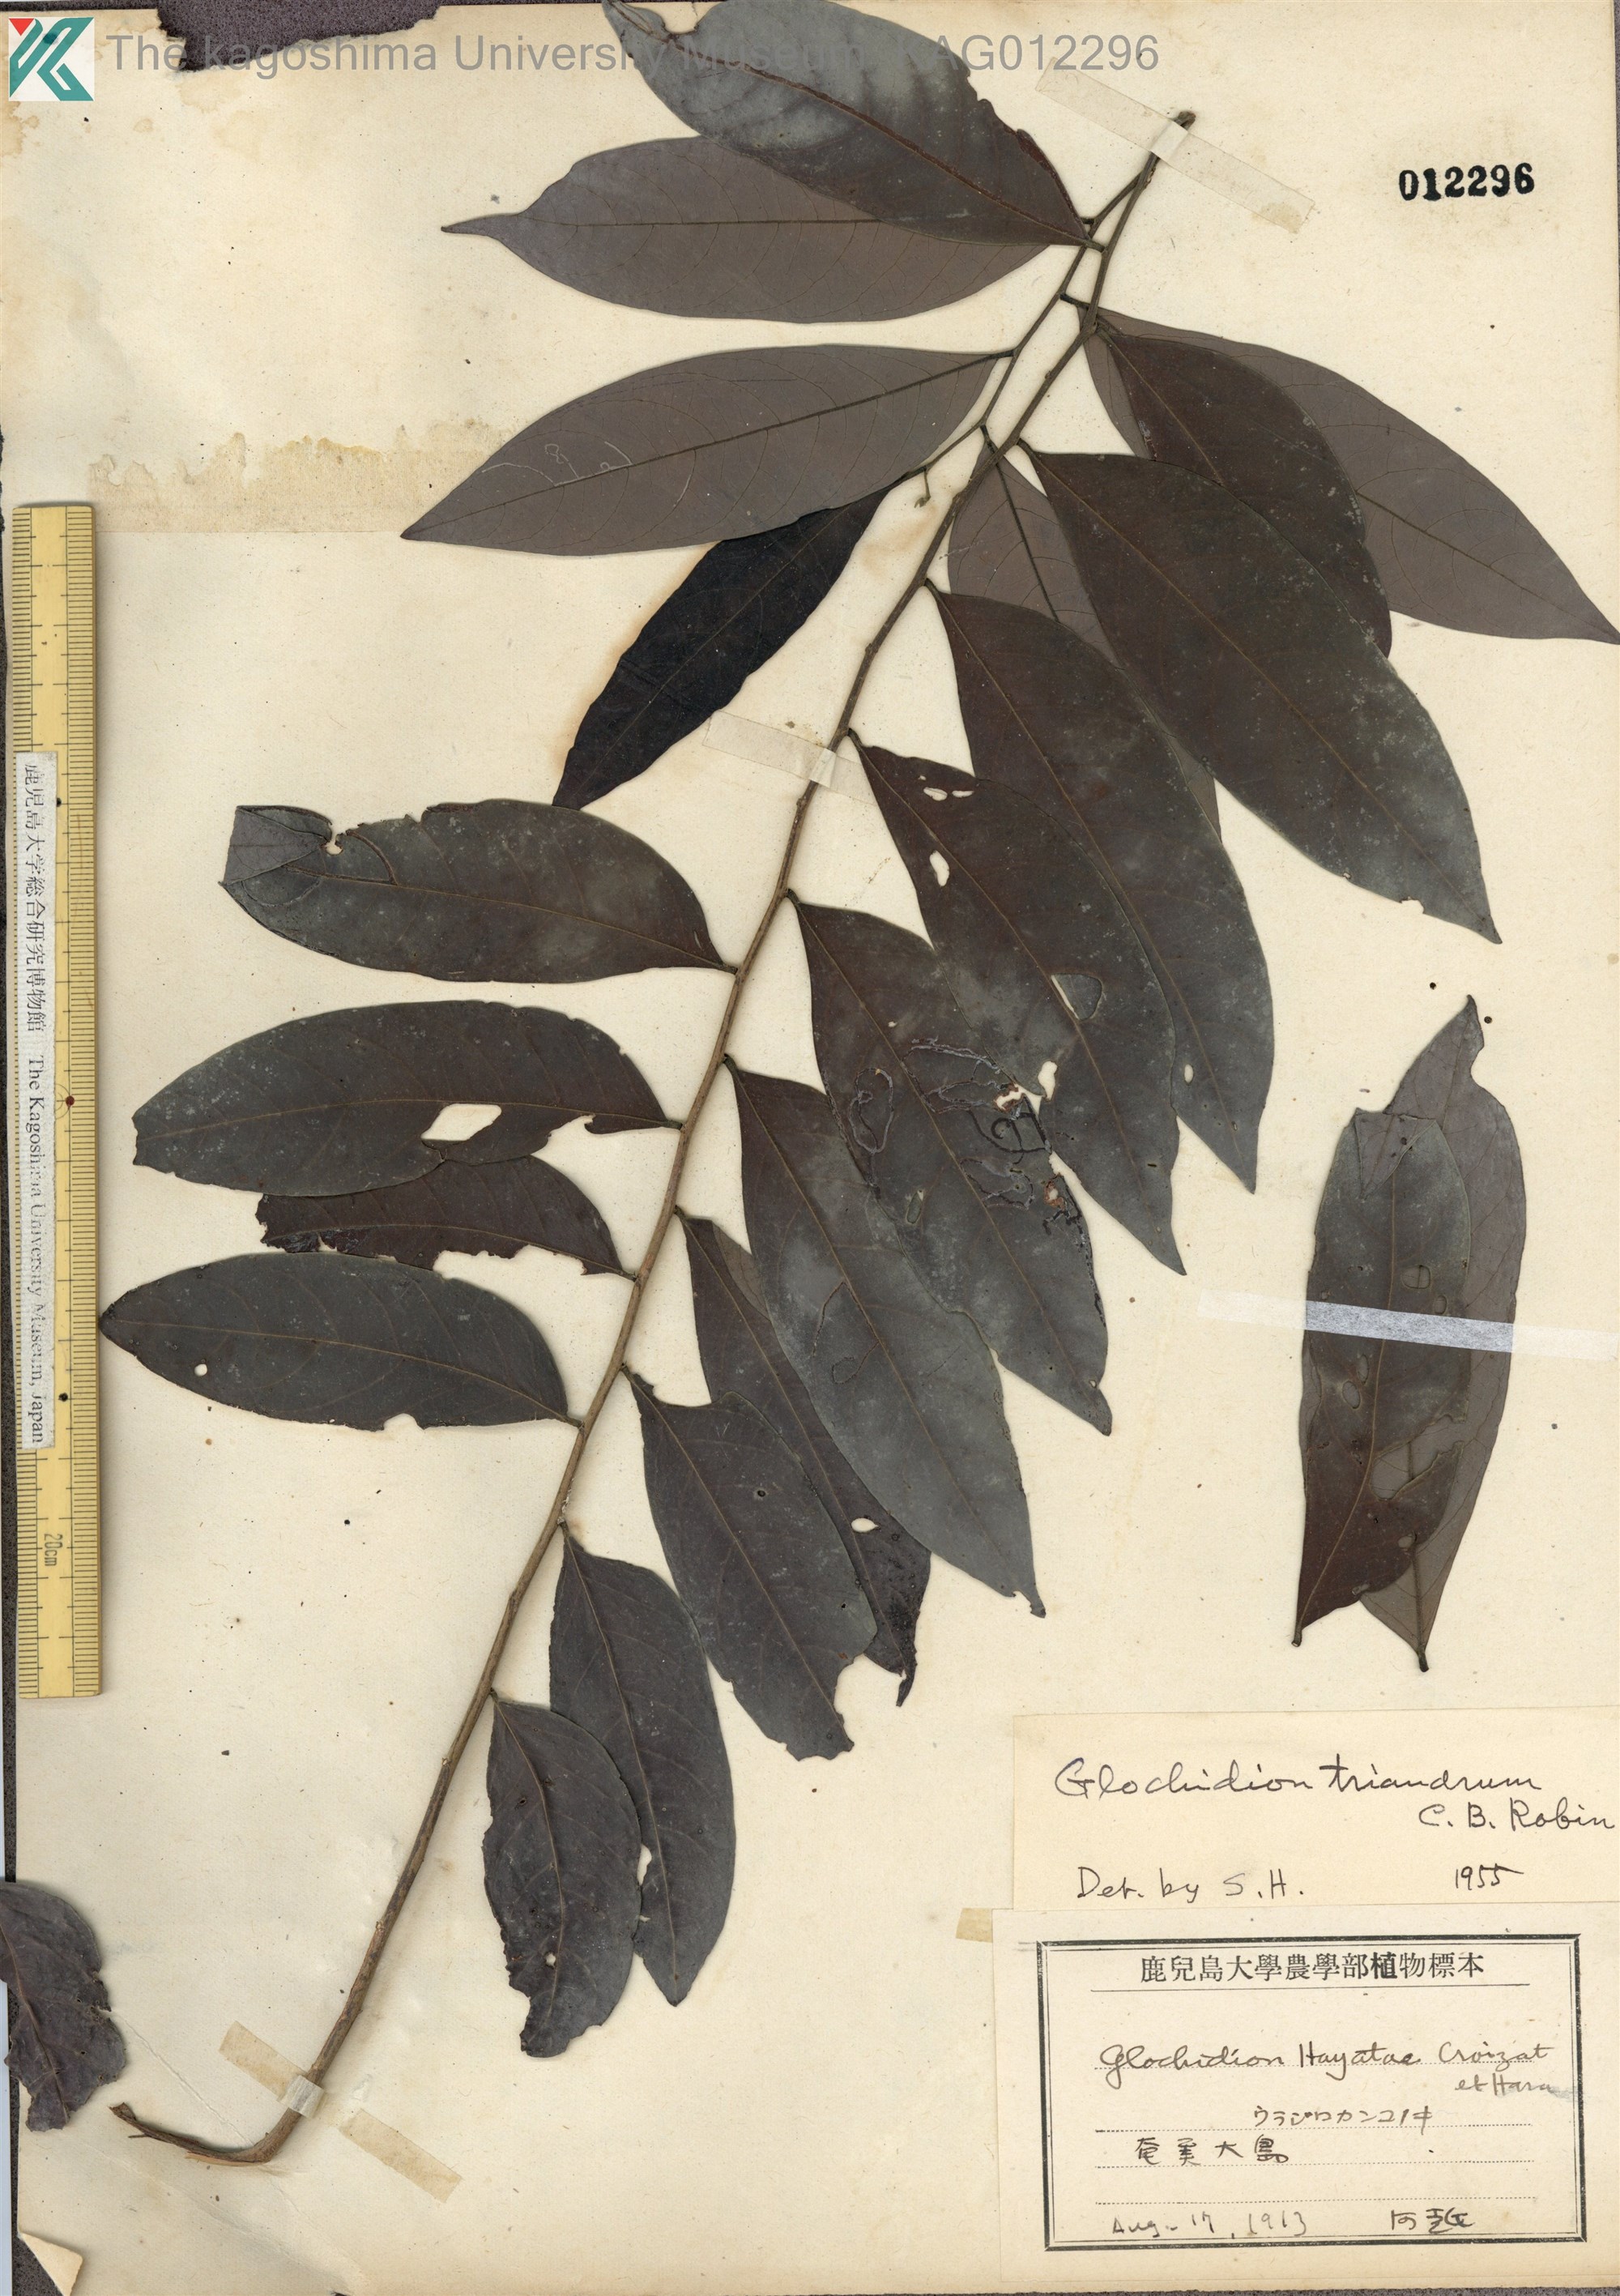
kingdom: Plantae
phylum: Tracheophyta
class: Magnoliopsida
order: Malpighiales
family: Phyllanthaceae
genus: Glochidion
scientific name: Glochidion triandrum
